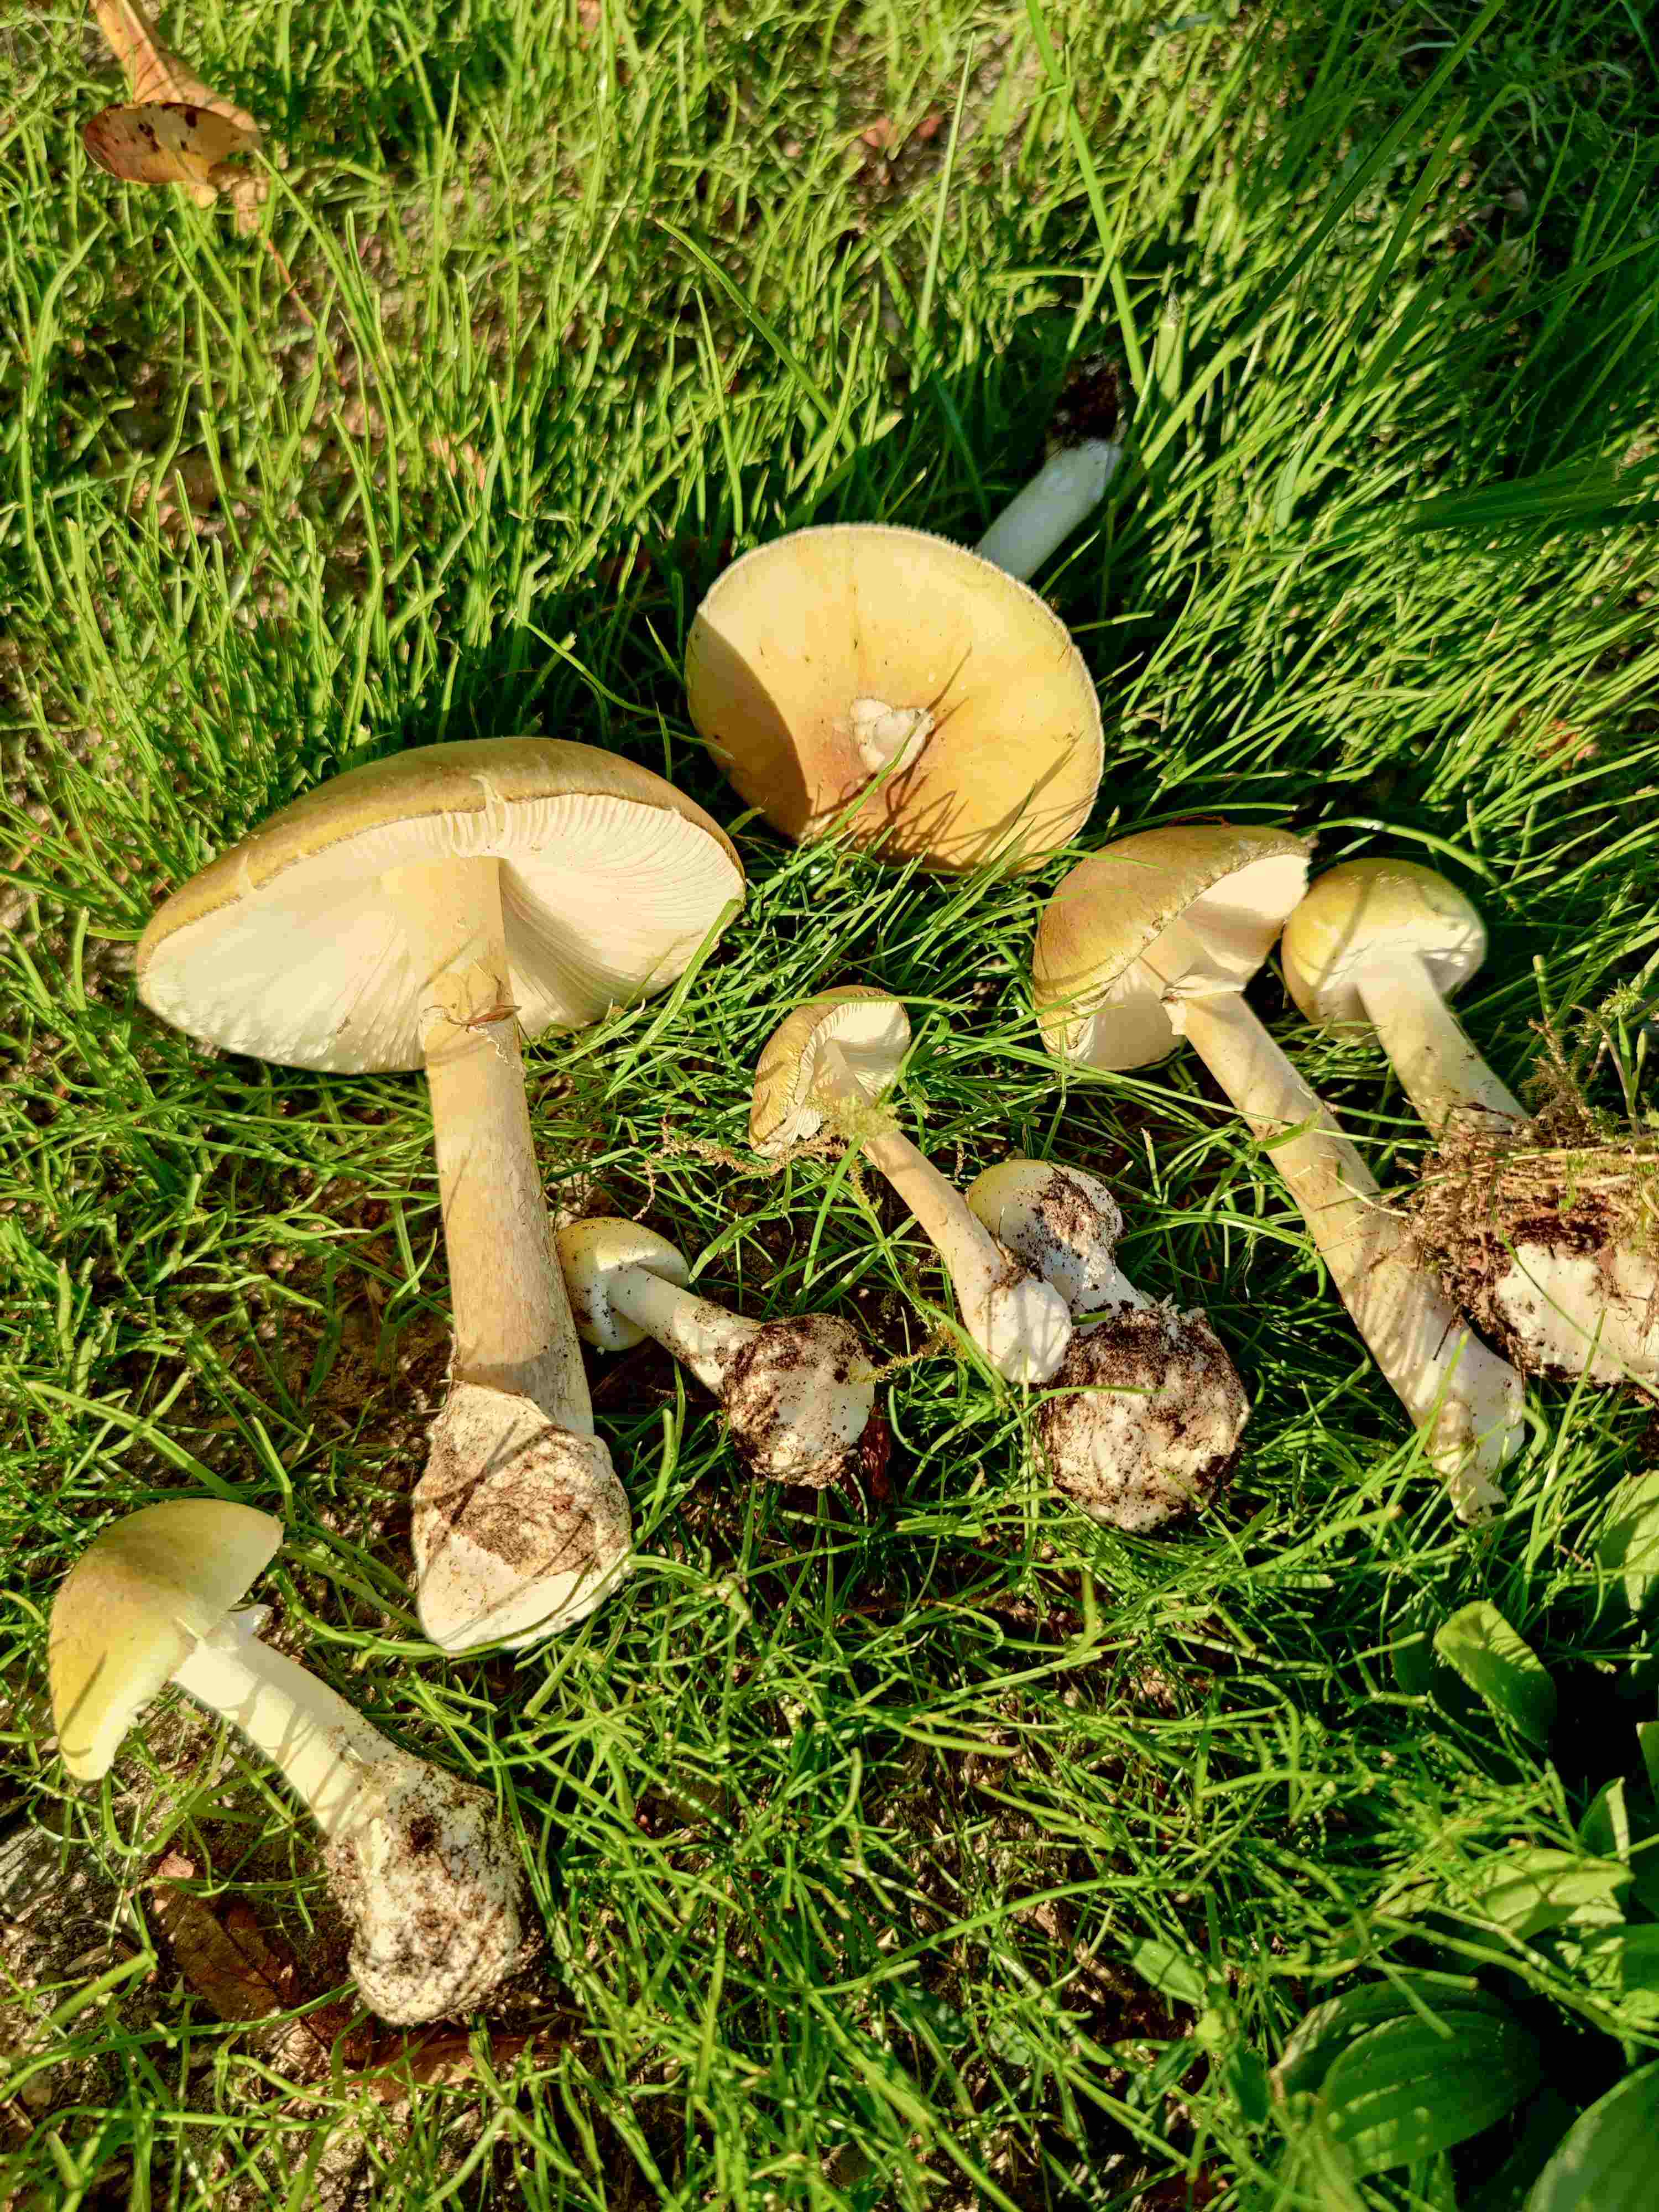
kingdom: Fungi
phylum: Basidiomycota
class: Agaricomycetes
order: Agaricales
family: Amanitaceae
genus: Amanita
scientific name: Amanita phalloides
